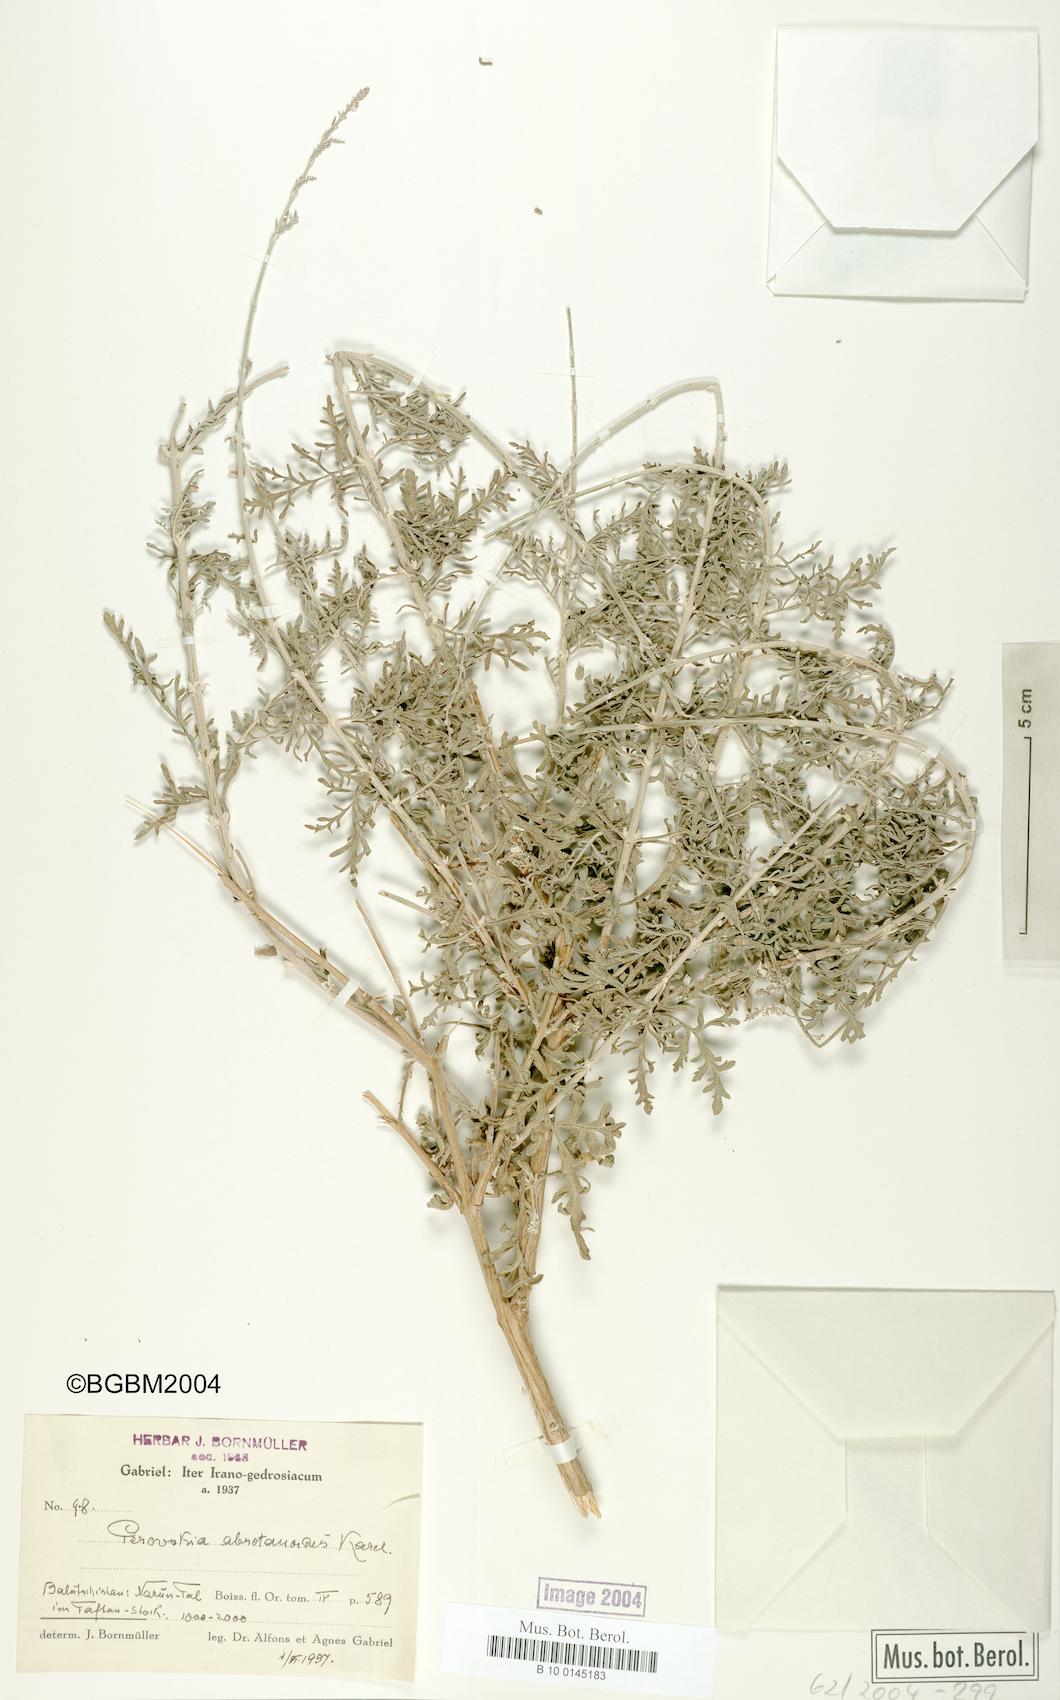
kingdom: Plantae
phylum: Tracheophyta
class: Magnoliopsida
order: Lamiales
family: Lamiaceae
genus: Salvia
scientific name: Salvia abrotanoides
